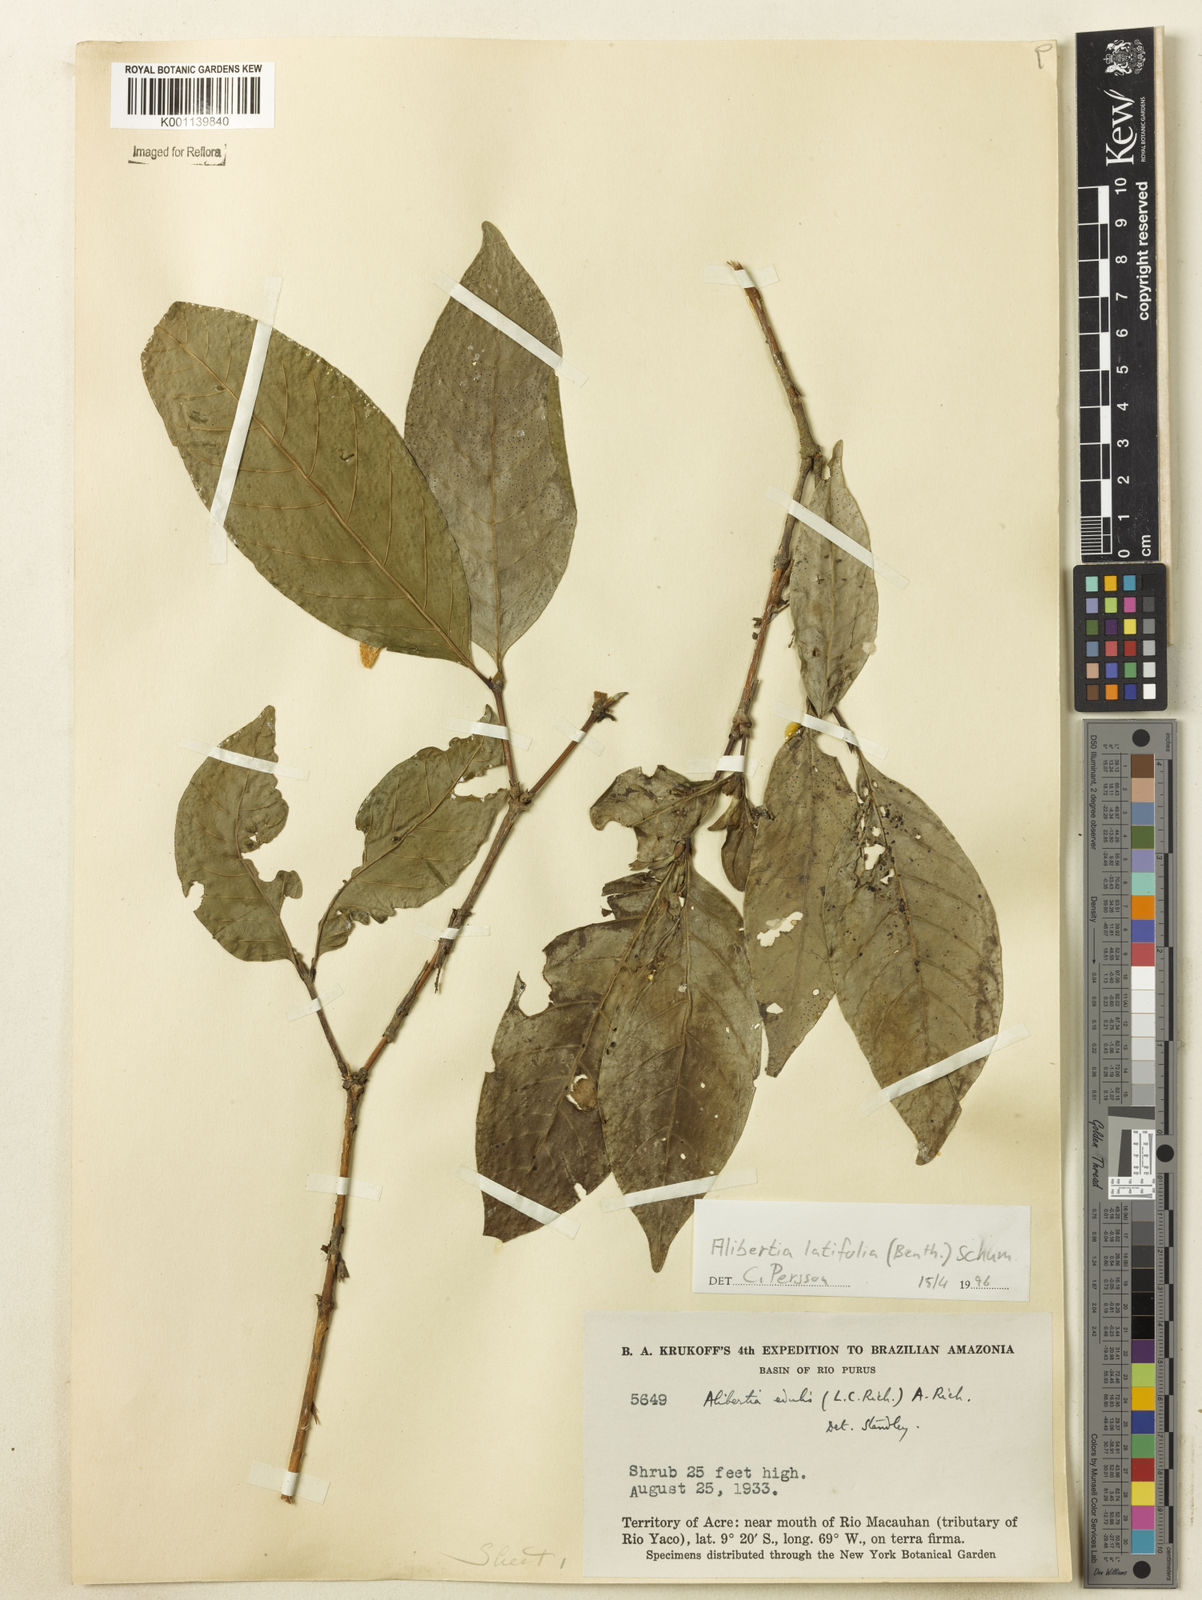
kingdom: Plantae
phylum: Tracheophyta
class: Magnoliopsida
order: Gentianales
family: Rubiaceae
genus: Alibertia
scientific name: Alibertia latifolia
